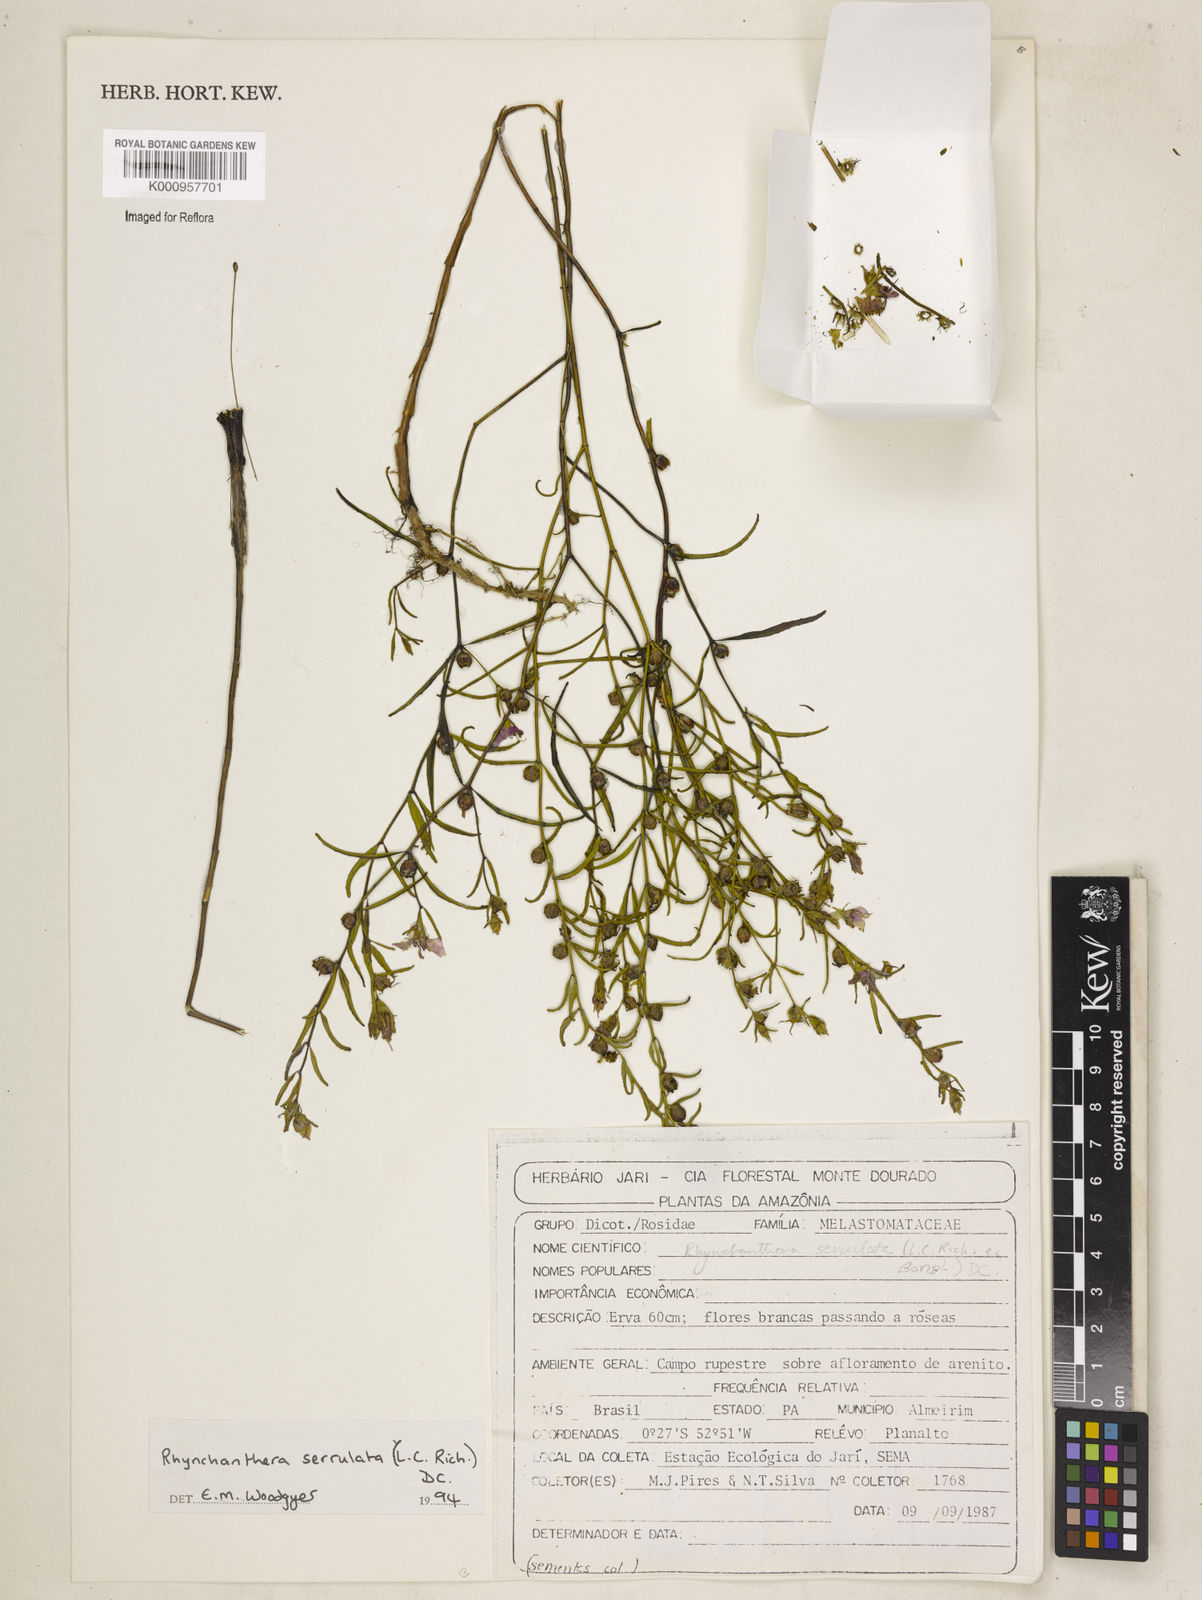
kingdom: Plantae
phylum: Tracheophyta
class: Magnoliopsida
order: Myrtales
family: Melastomataceae
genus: Rhynchanthera
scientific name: Rhynchanthera serrulata
